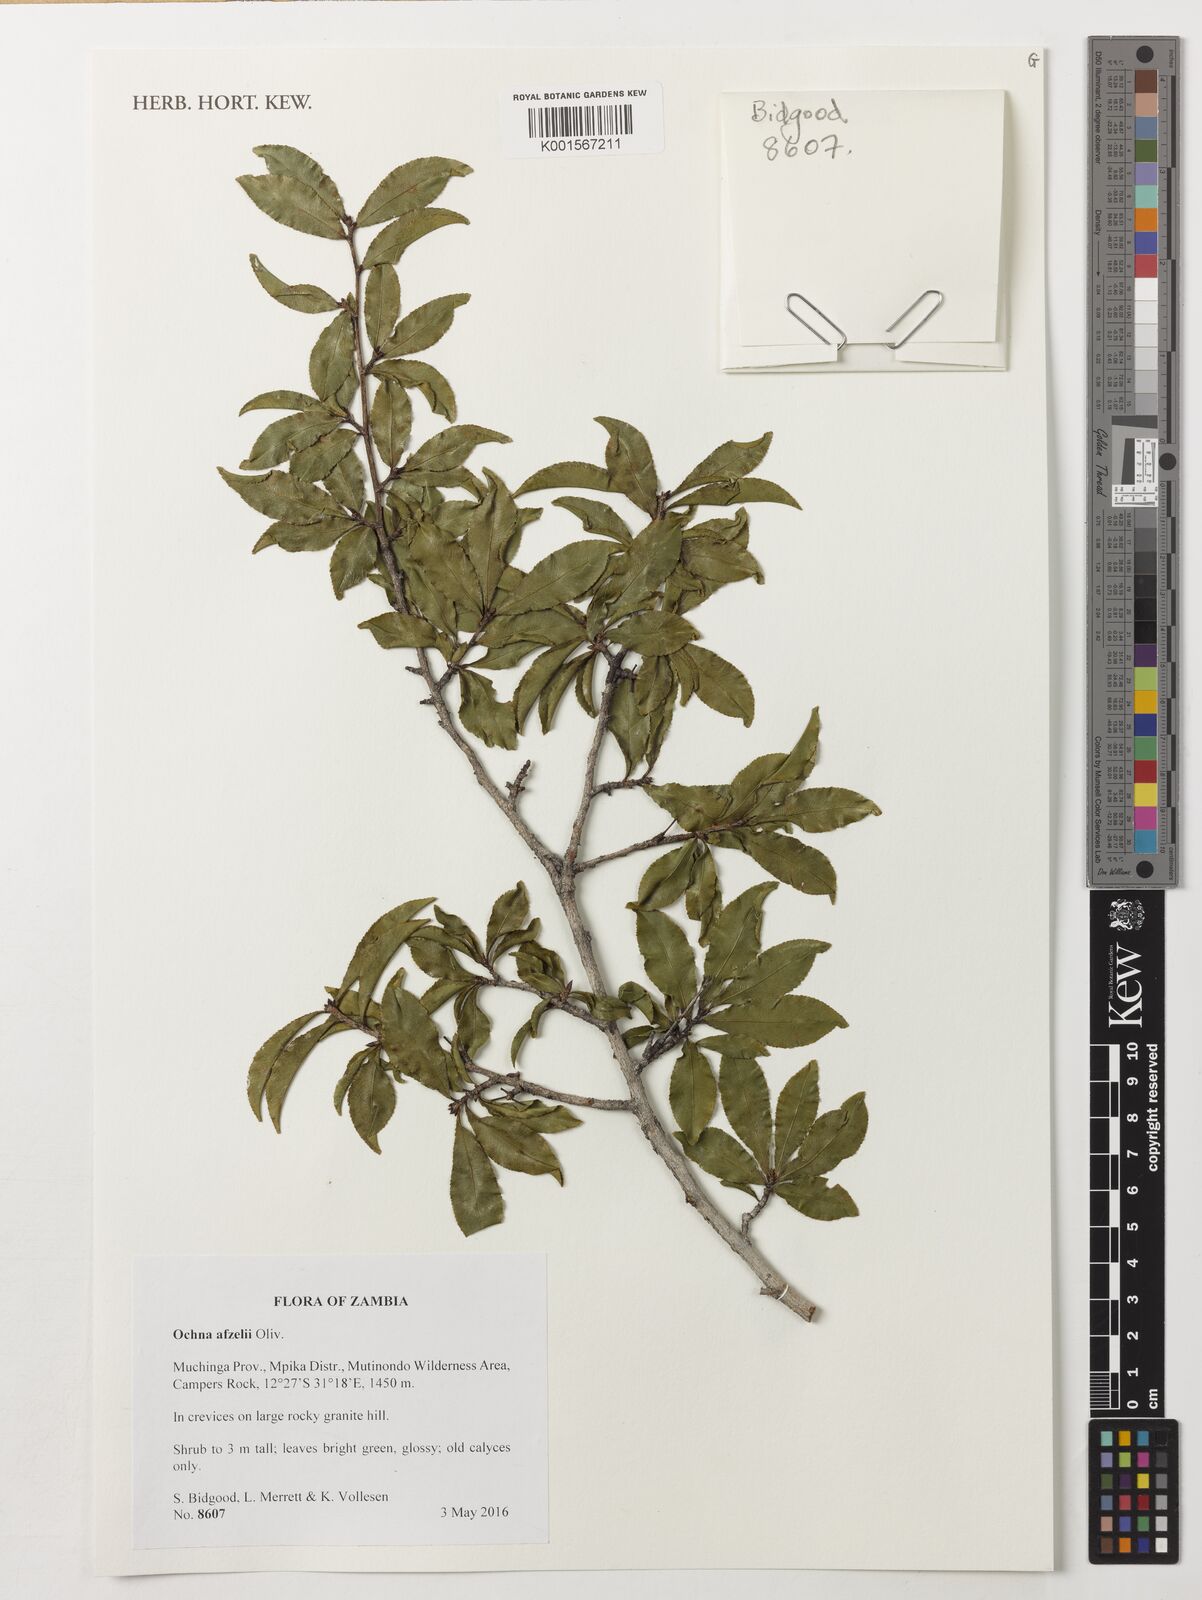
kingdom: Plantae
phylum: Tracheophyta
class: Magnoliopsida
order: Malpighiales
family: Ochnaceae
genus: Ochna
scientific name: Ochna afzelii
